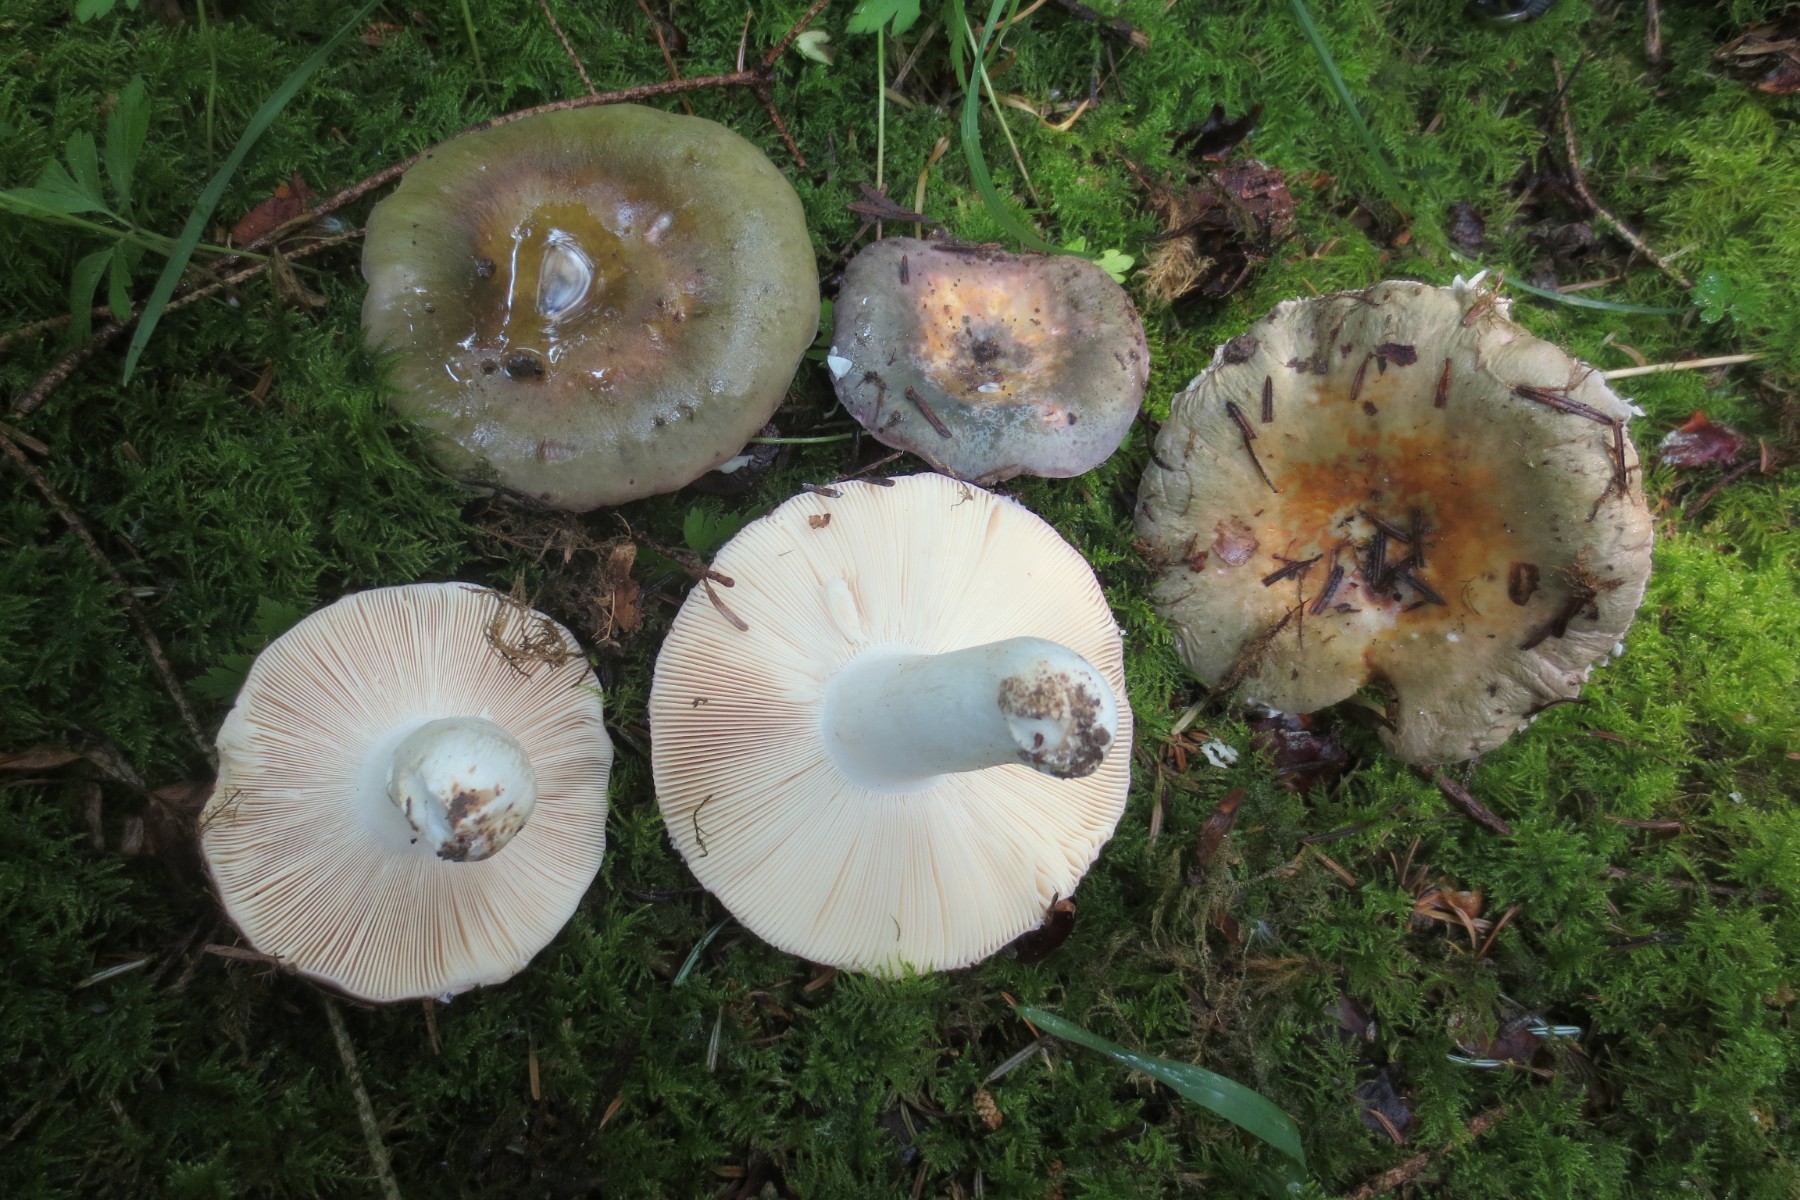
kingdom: Fungi
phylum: Basidiomycota
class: Agaricomycetes
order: Russulales
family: Russulaceae
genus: Russula
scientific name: Russula grisea
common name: grålig skørhat
